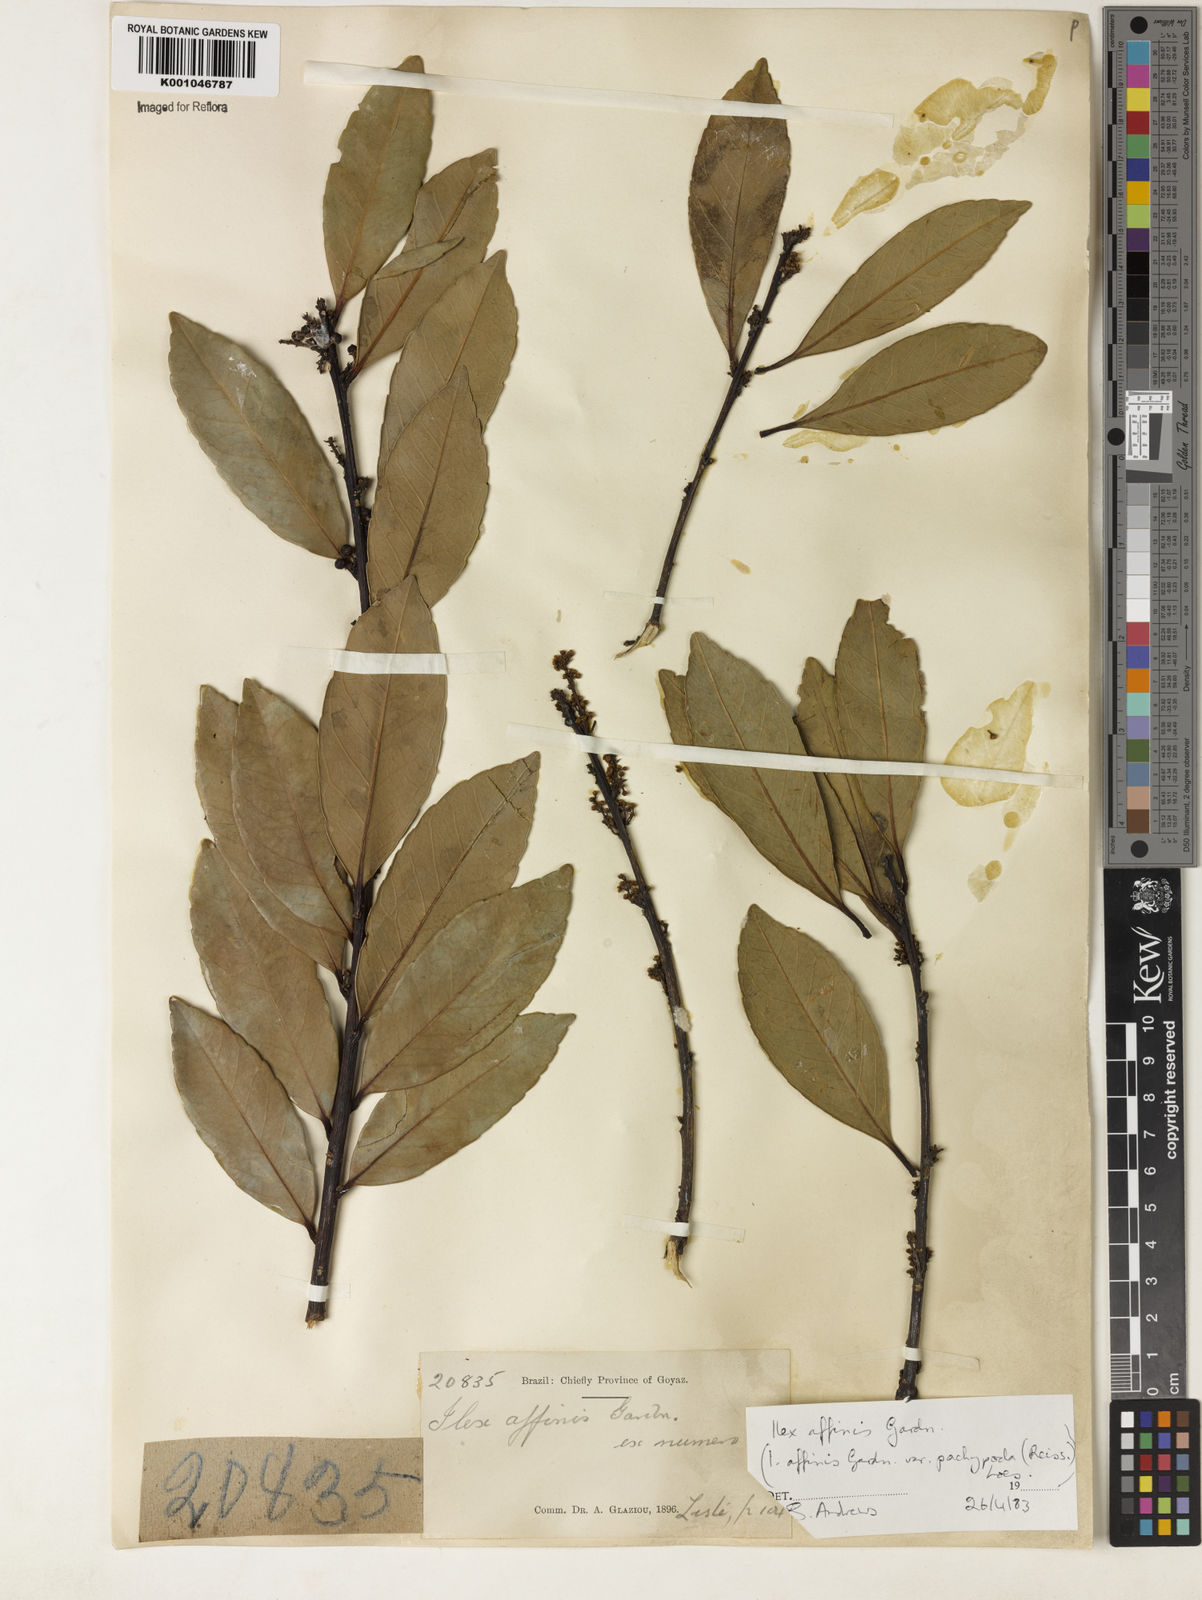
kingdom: Plantae
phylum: Tracheophyta
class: Magnoliopsida
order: Aquifoliales
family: Aquifoliaceae
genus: Ilex
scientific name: Ilex affinis
